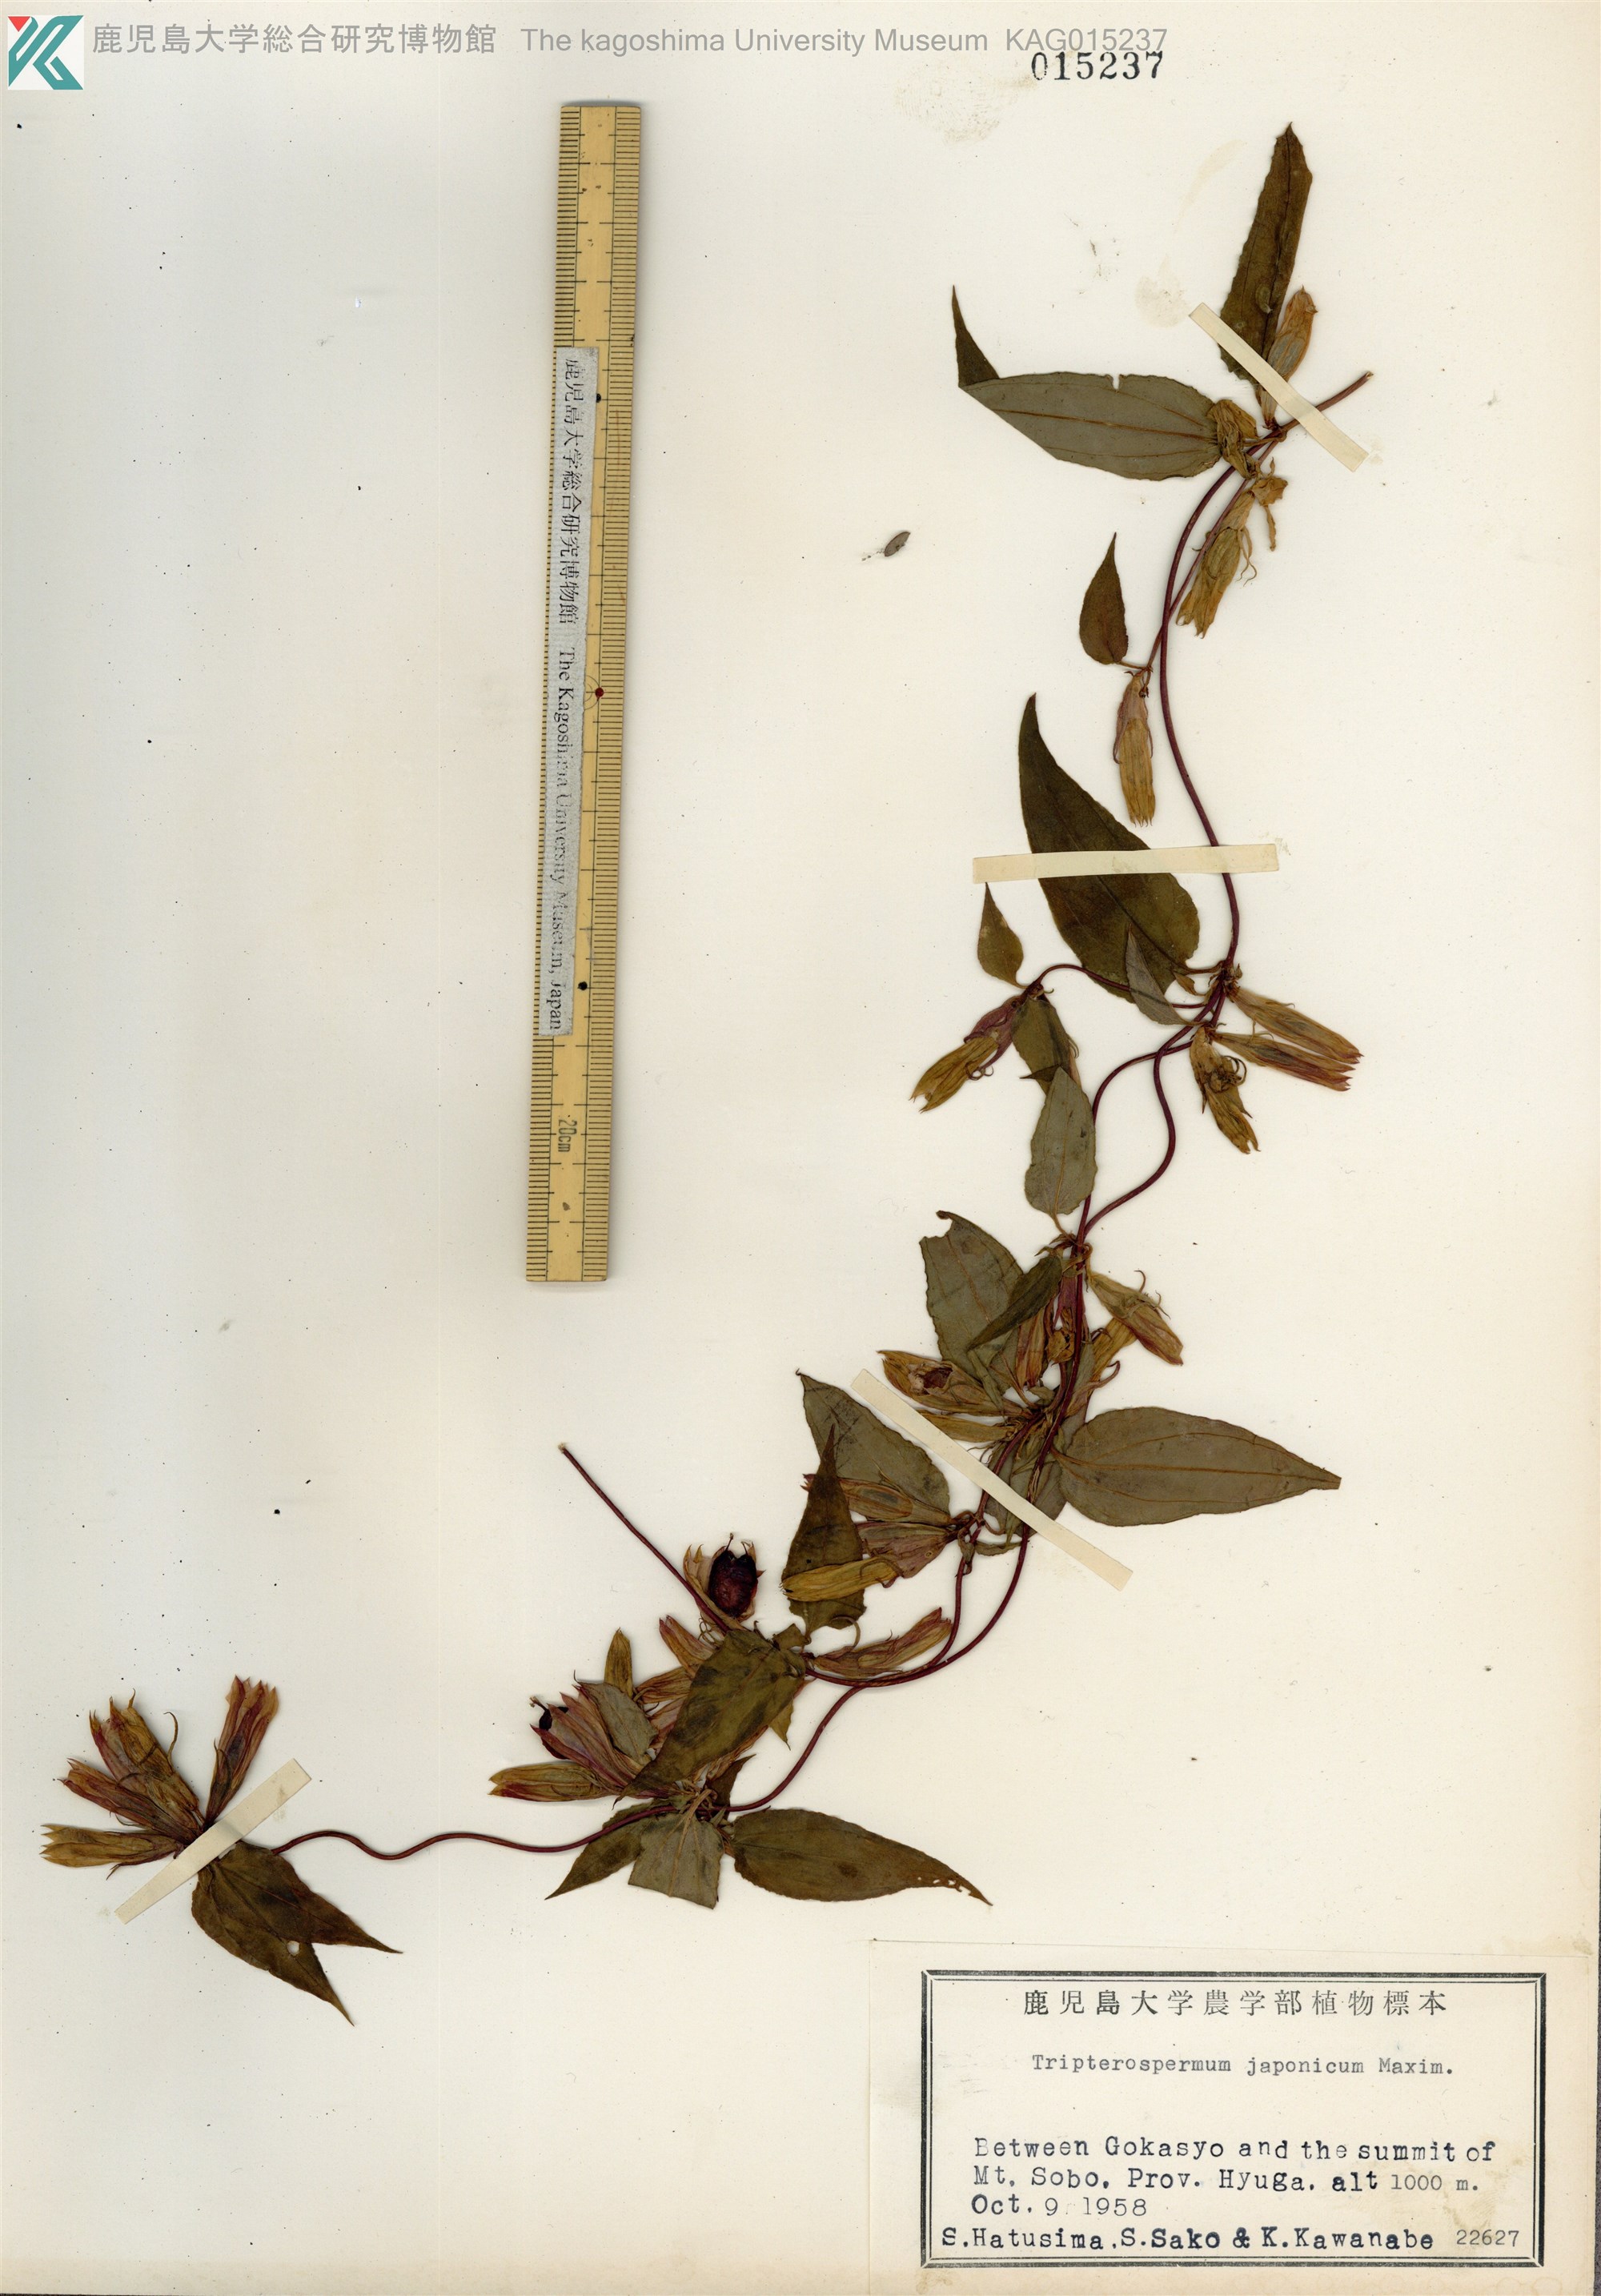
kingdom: Plantae
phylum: Tracheophyta
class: Magnoliopsida
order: Gentianales
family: Gentianaceae
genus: Tripterospermum
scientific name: Tripterospermum trinervium
